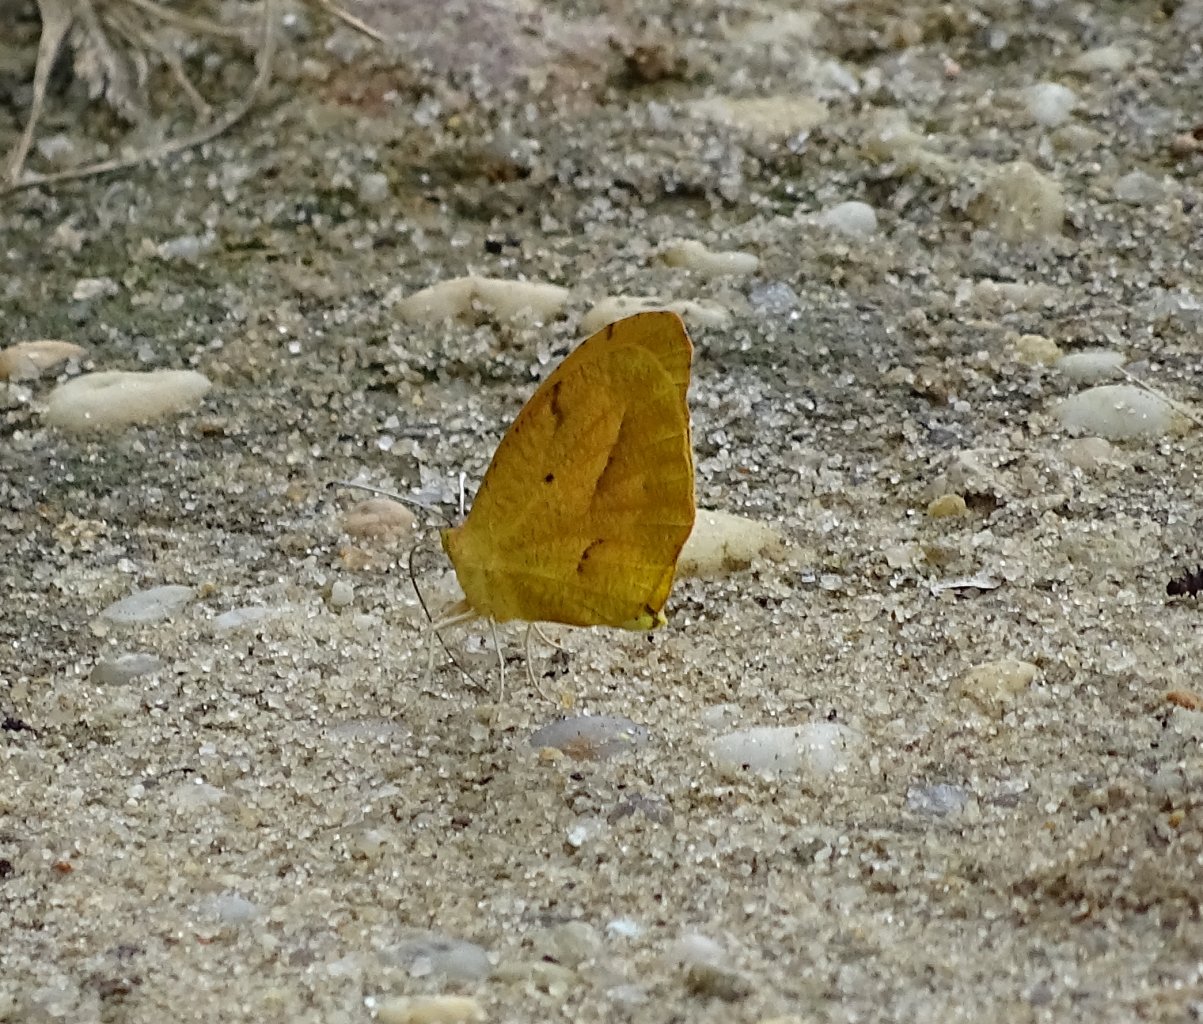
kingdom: Animalia
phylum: Arthropoda
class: Insecta
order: Lepidoptera
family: Pieridae
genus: Abaeis
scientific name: Abaeis nicippe
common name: Sleepy Orange
